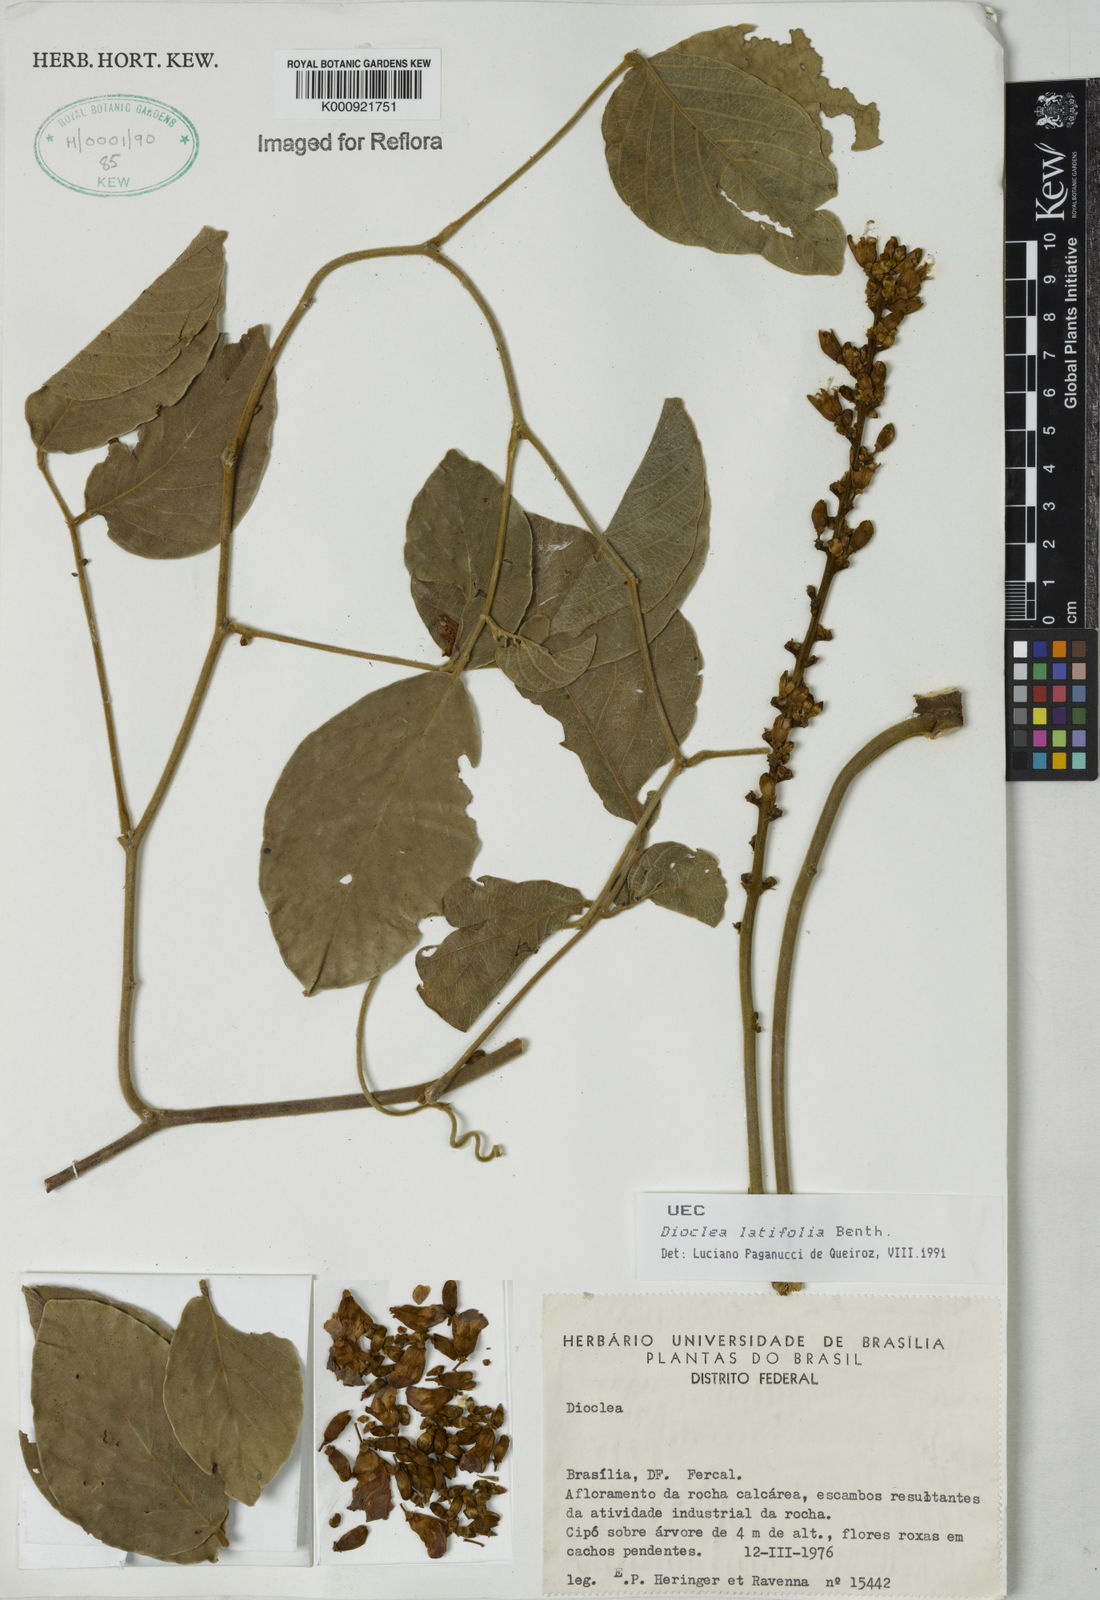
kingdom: Plantae
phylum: Tracheophyta
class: Magnoliopsida
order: Fabales
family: Fabaceae
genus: Macropsychanthus
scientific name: Macropsychanthus latifolius
